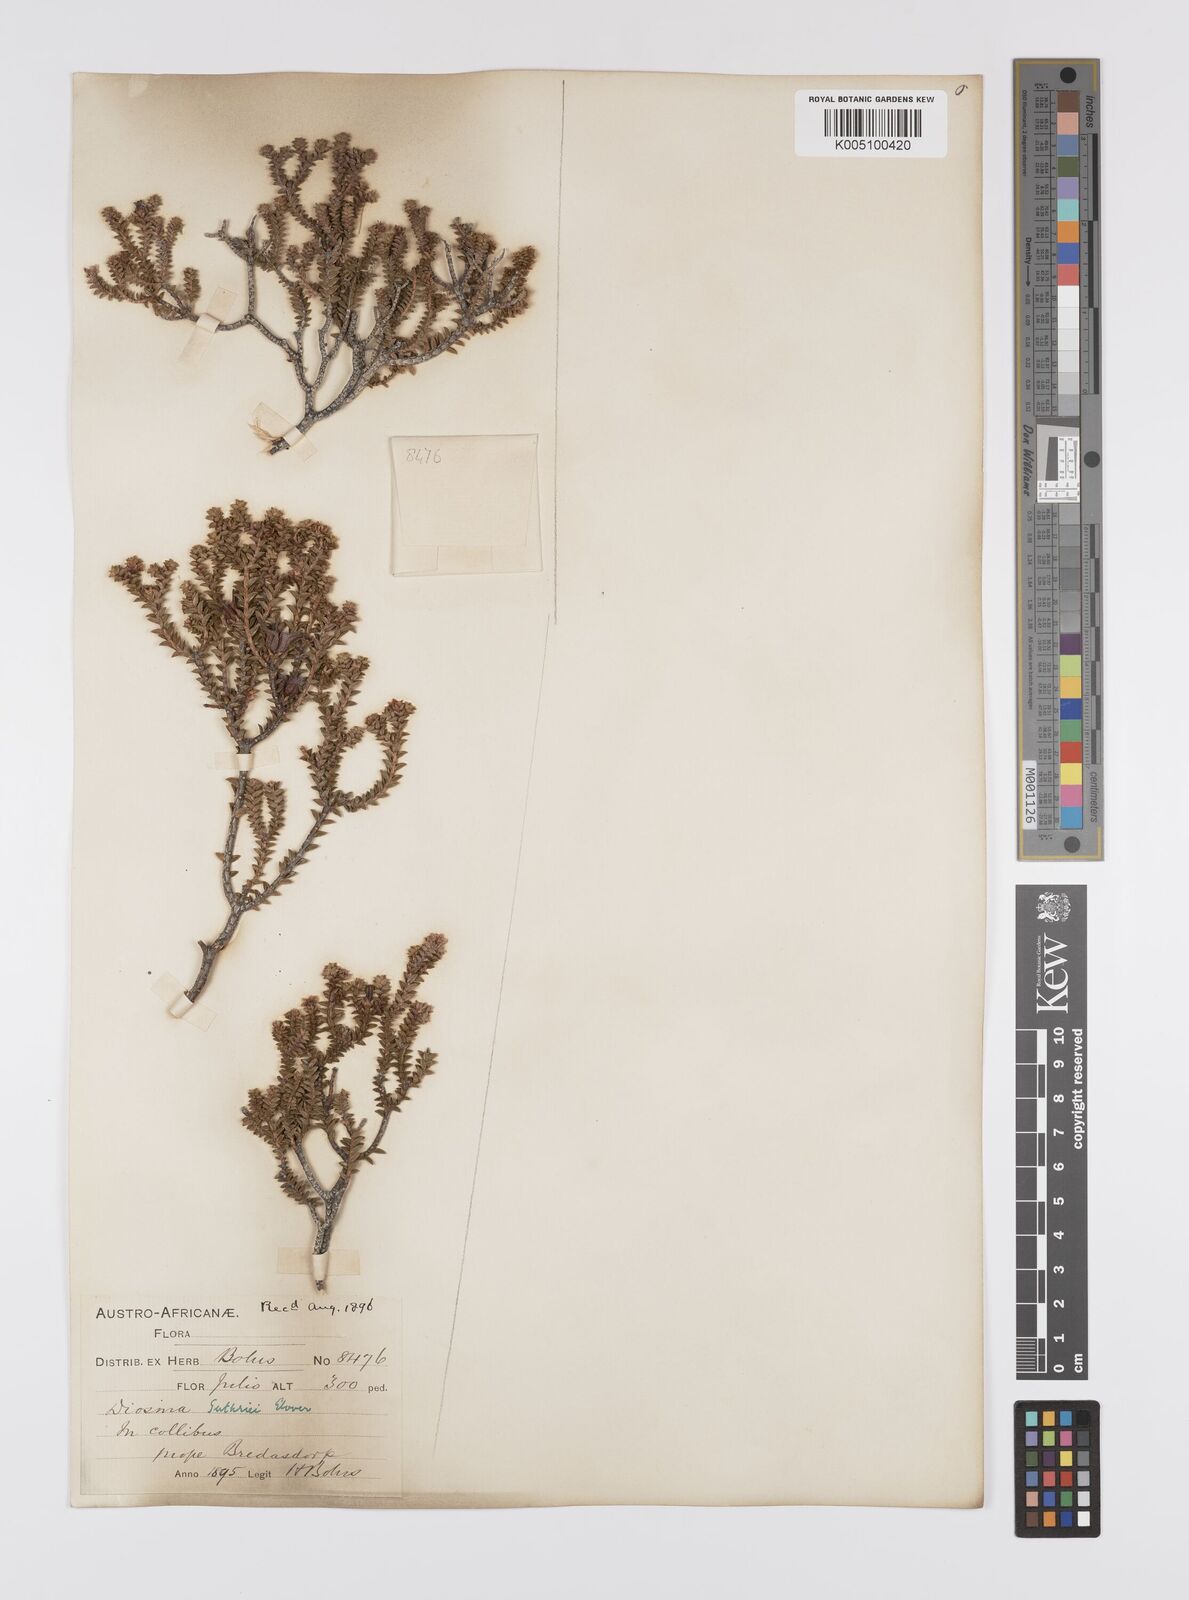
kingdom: Plantae
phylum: Tracheophyta
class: Magnoliopsida
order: Sapindales
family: Rutaceae
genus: Diosma
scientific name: Diosma guthriei
